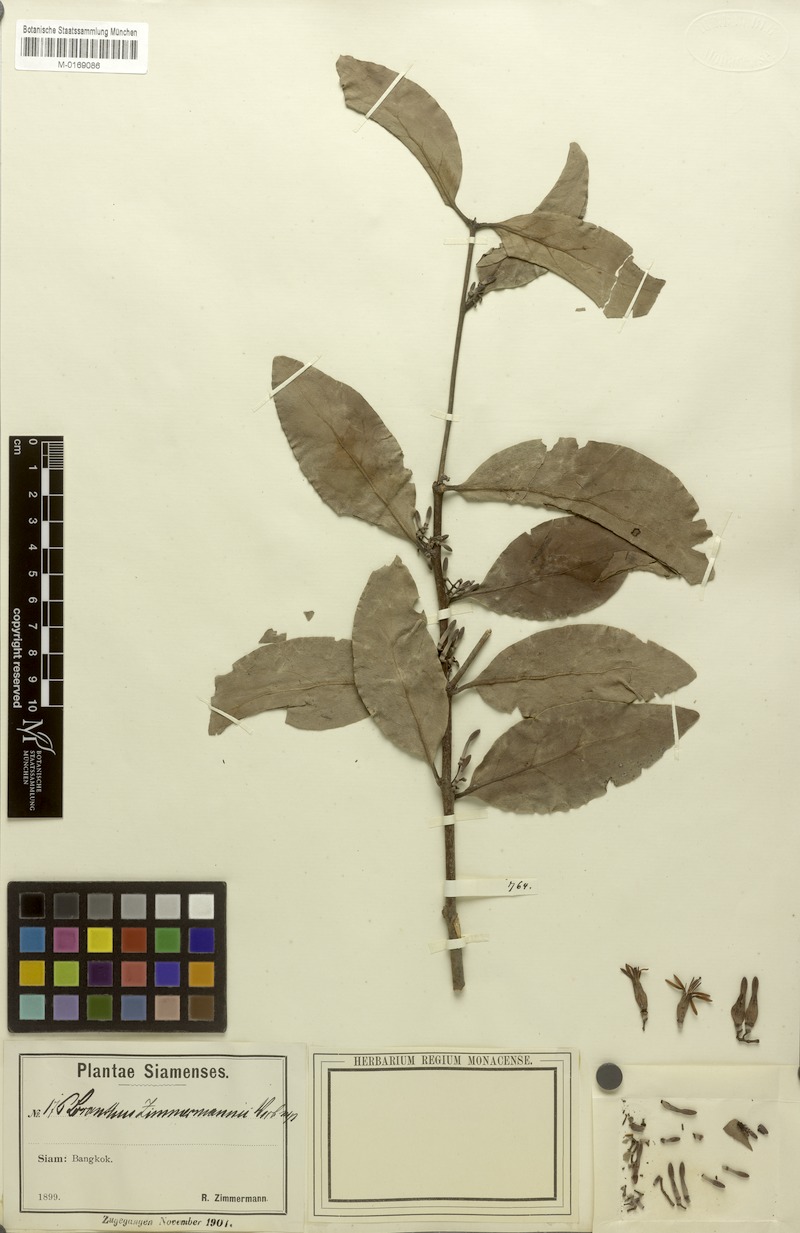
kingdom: Plantae
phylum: Tracheophyta
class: Magnoliopsida
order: Santalales
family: Loranthaceae
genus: Dendrophthoe
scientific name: Dendrophthoe pentandra
